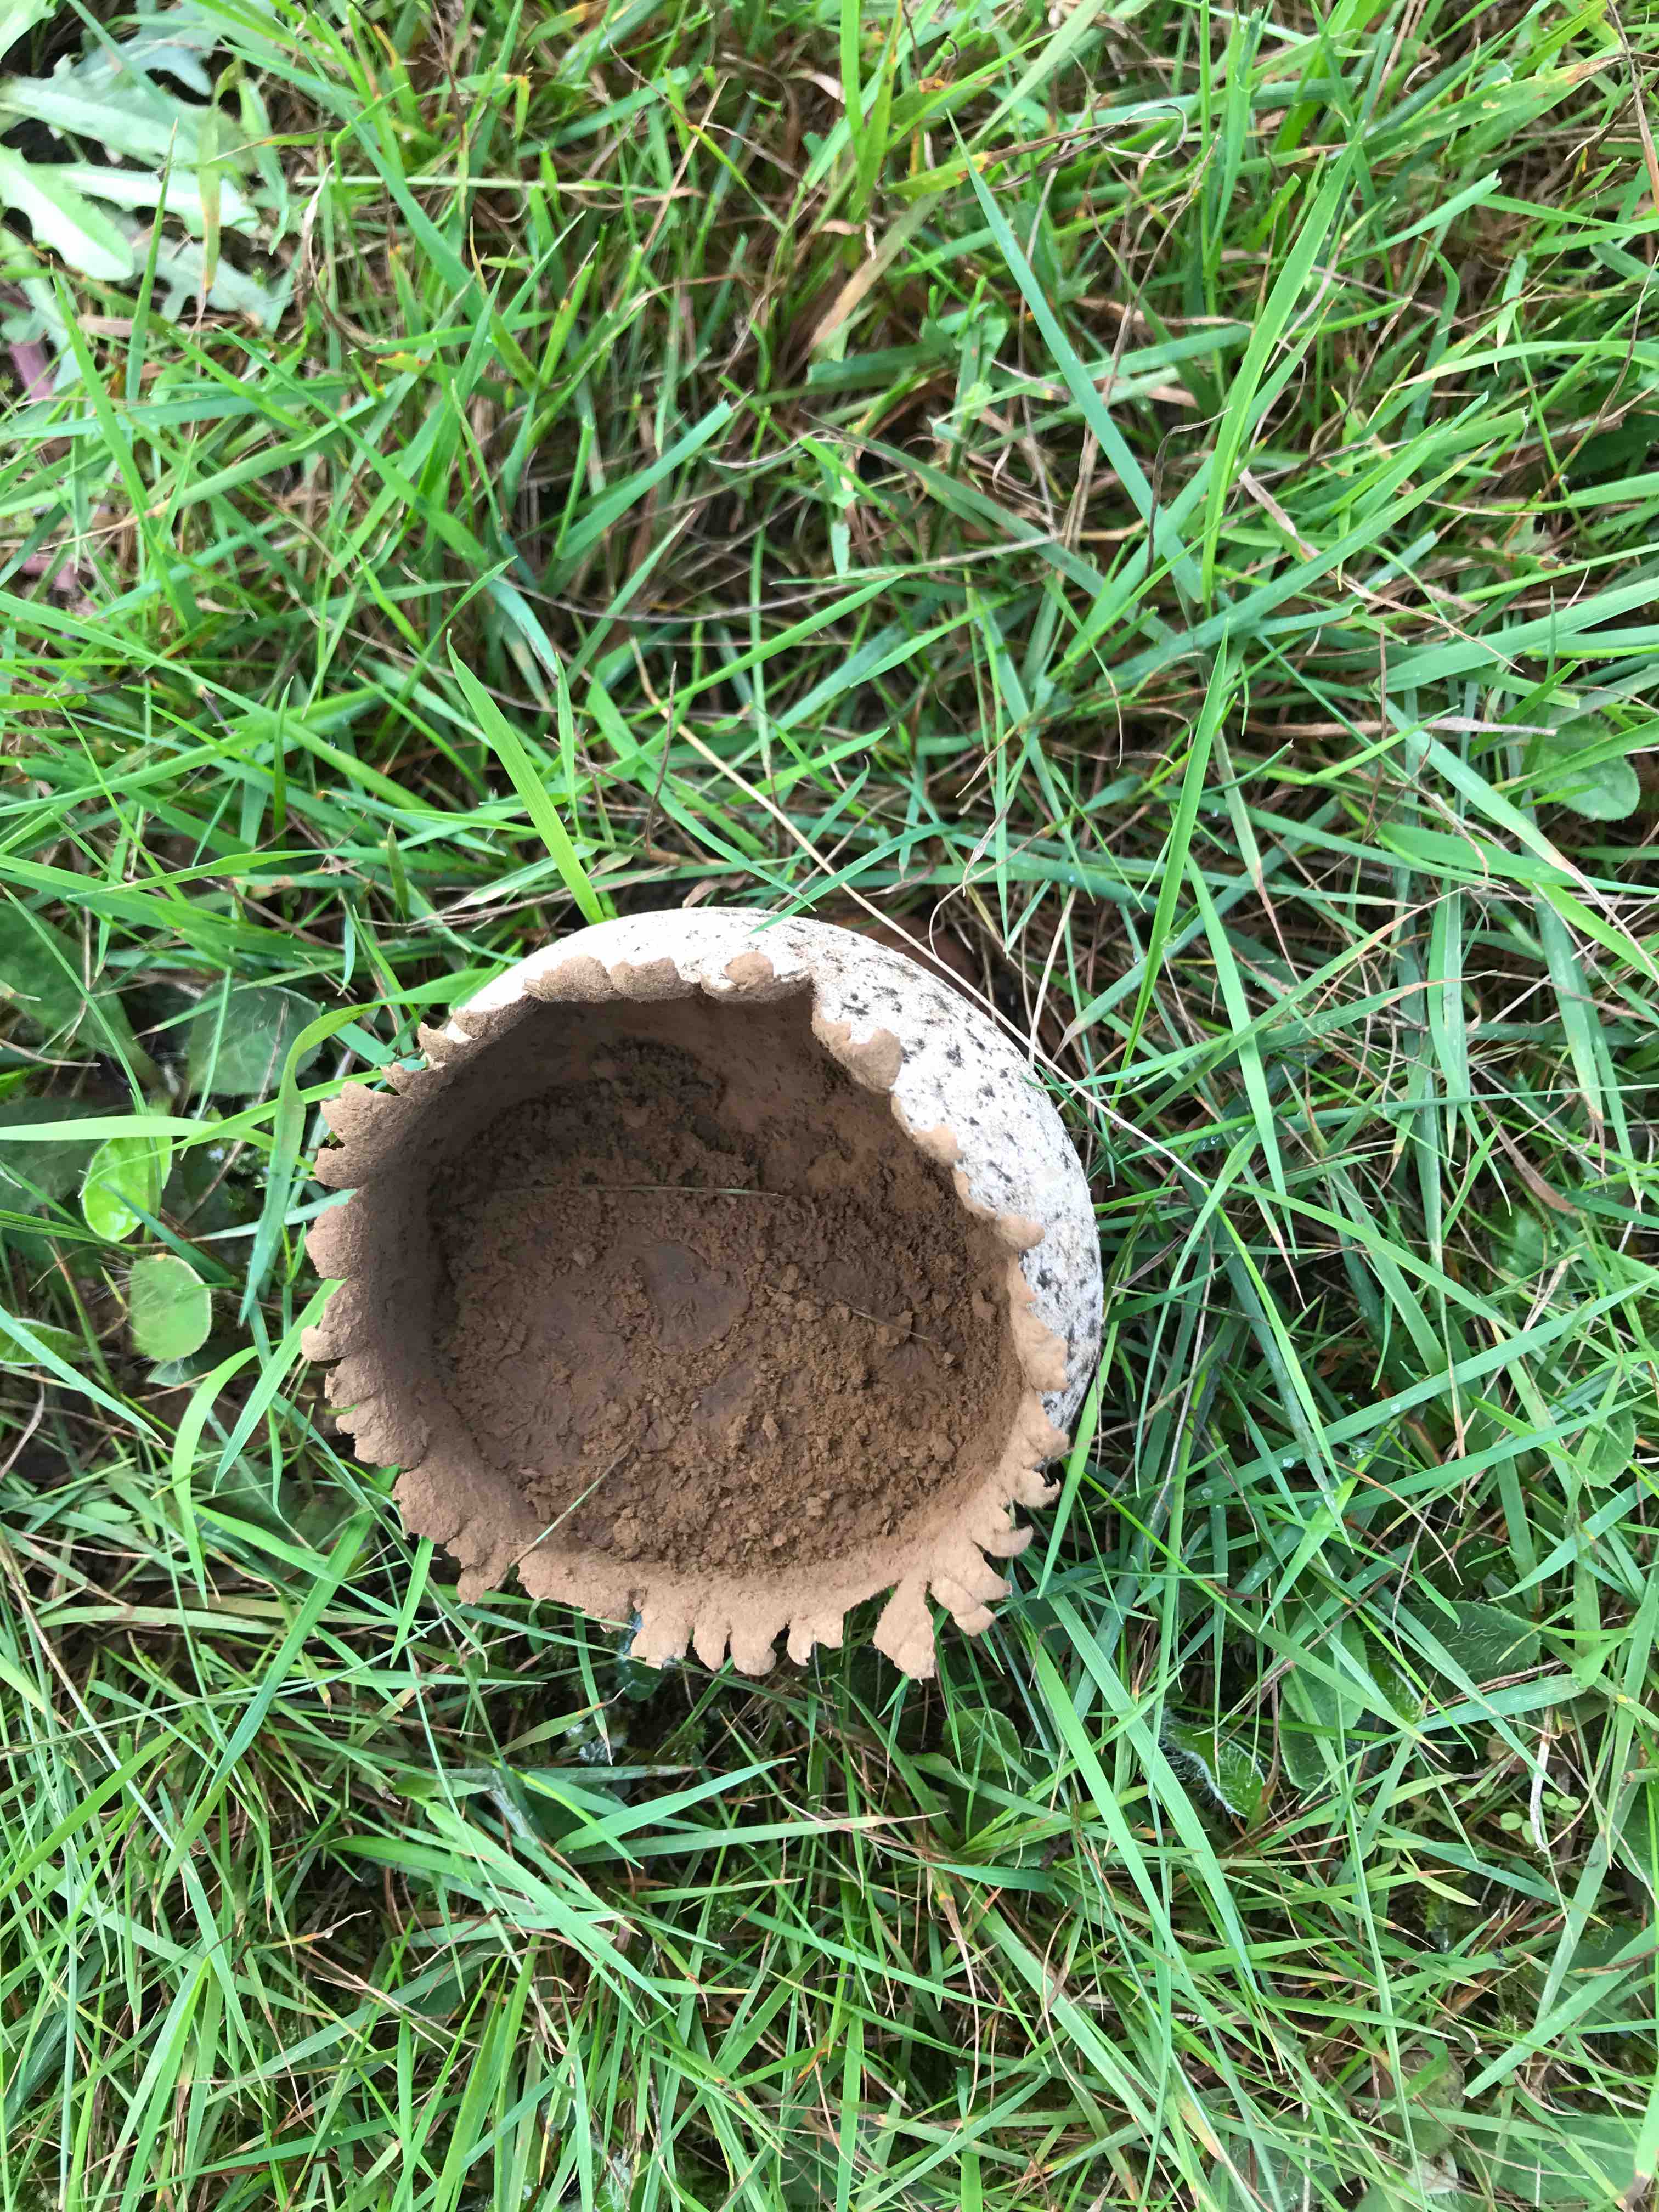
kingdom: Fungi
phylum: Basidiomycota
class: Agaricomycetes
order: Agaricales
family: Lycoperdaceae
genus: Bovistella
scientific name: Bovistella utriformis
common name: skællet støvbold
